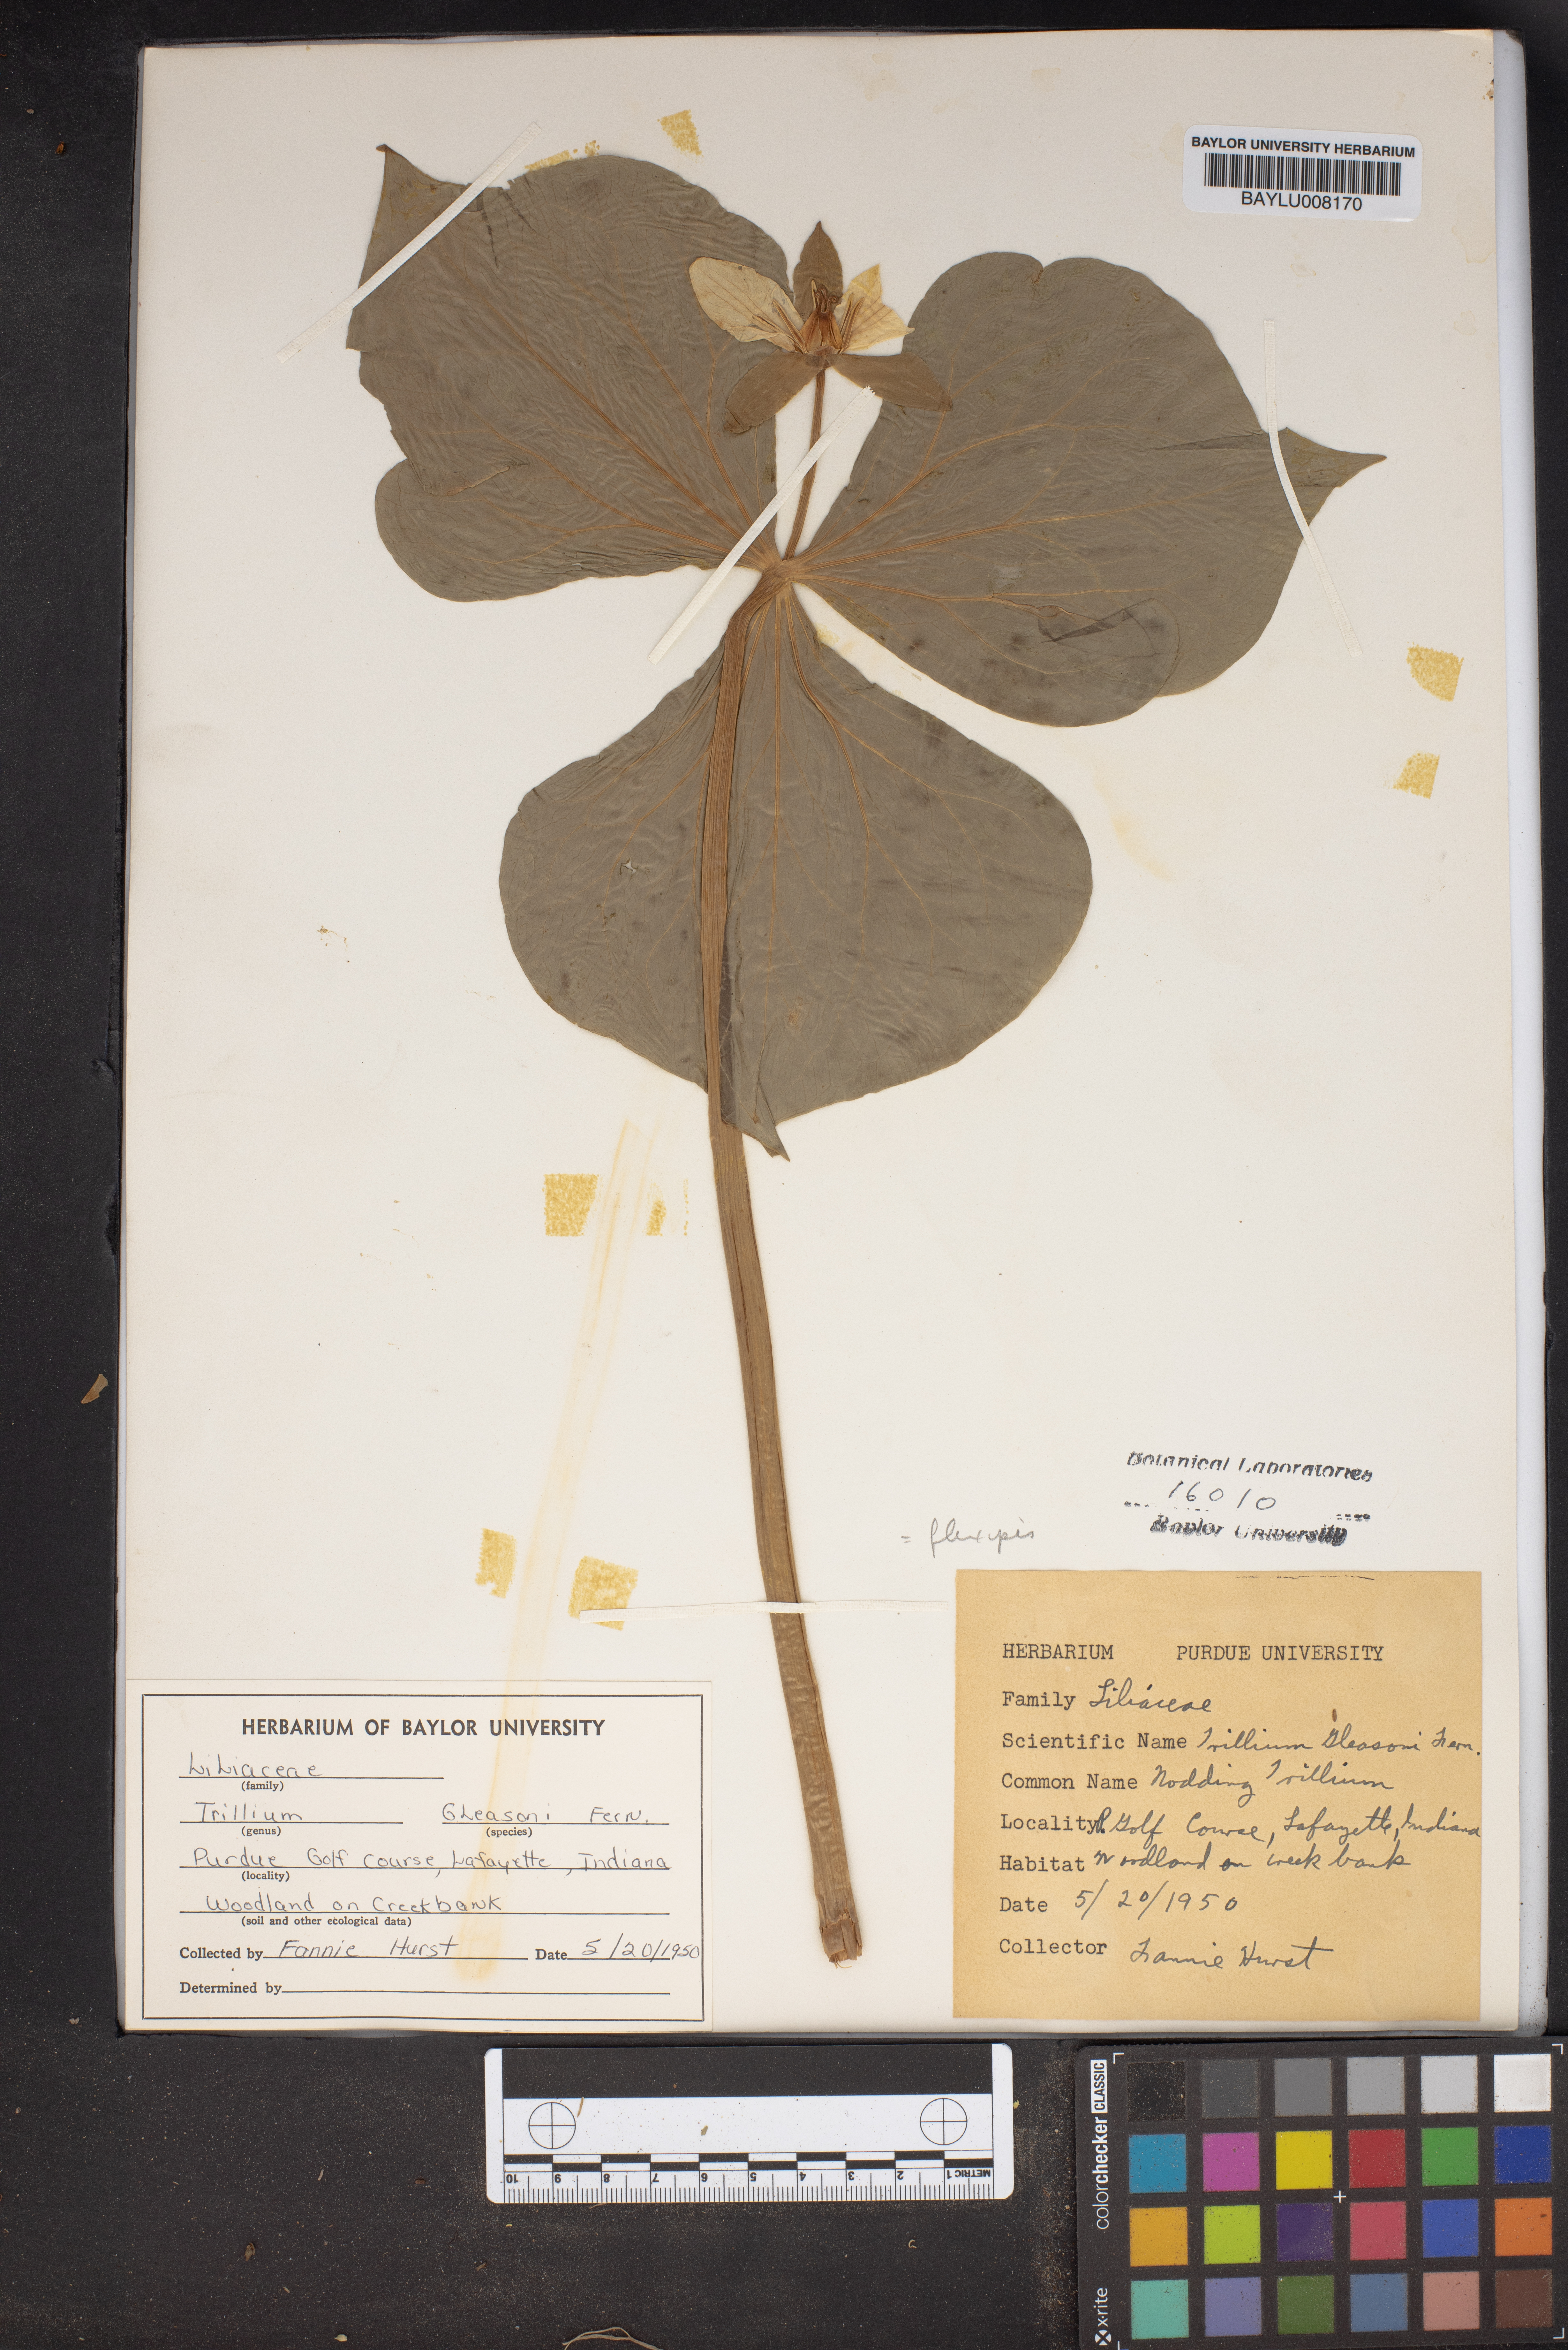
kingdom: Plantae
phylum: Tracheophyta
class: Liliopsida
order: Liliales
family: Melanthiaceae
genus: Trillium
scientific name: Trillium flexipes
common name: Drooping trillium
